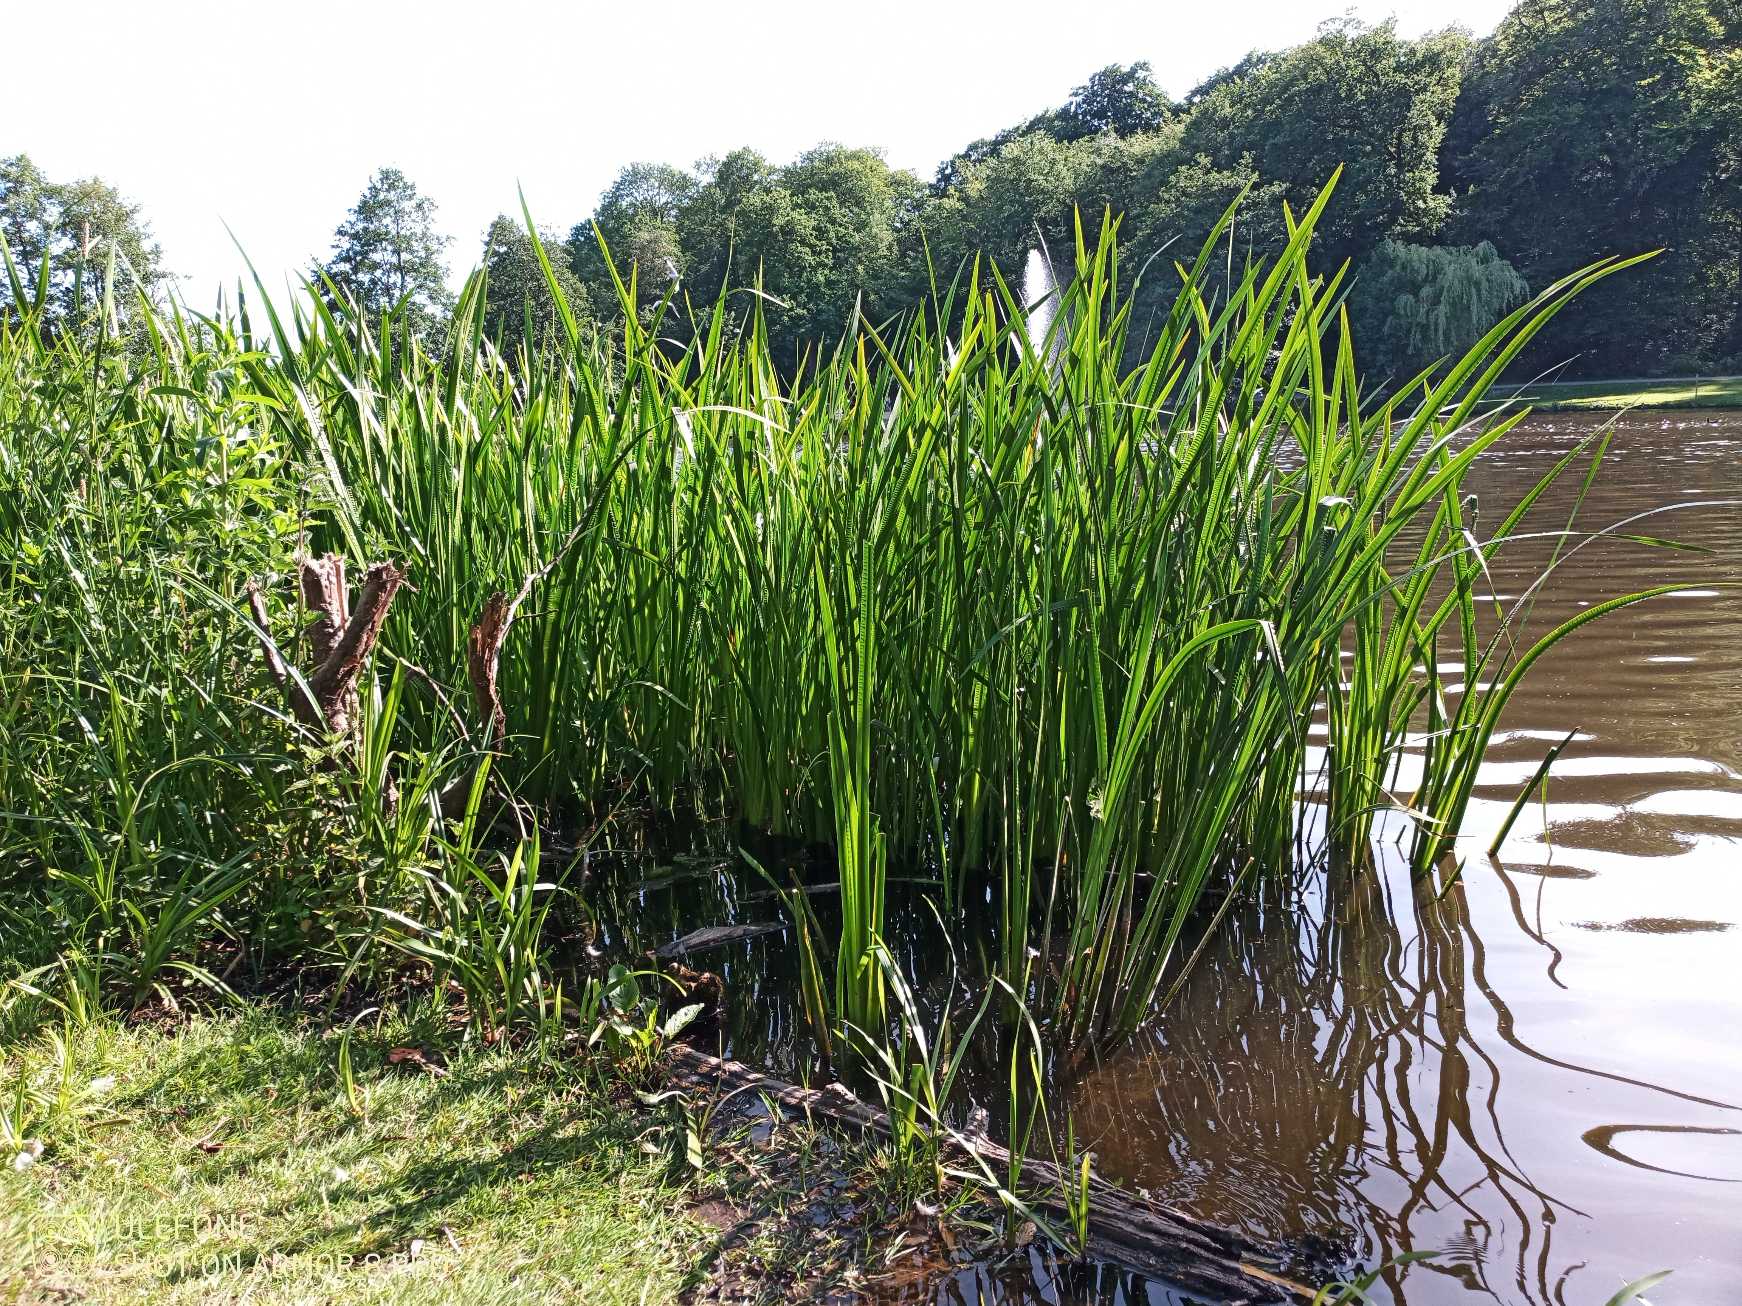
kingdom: Plantae
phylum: Tracheophyta
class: Liliopsida
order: Acorales
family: Acoraceae
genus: Acorus
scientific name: Acorus calamus
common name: Kalmus
